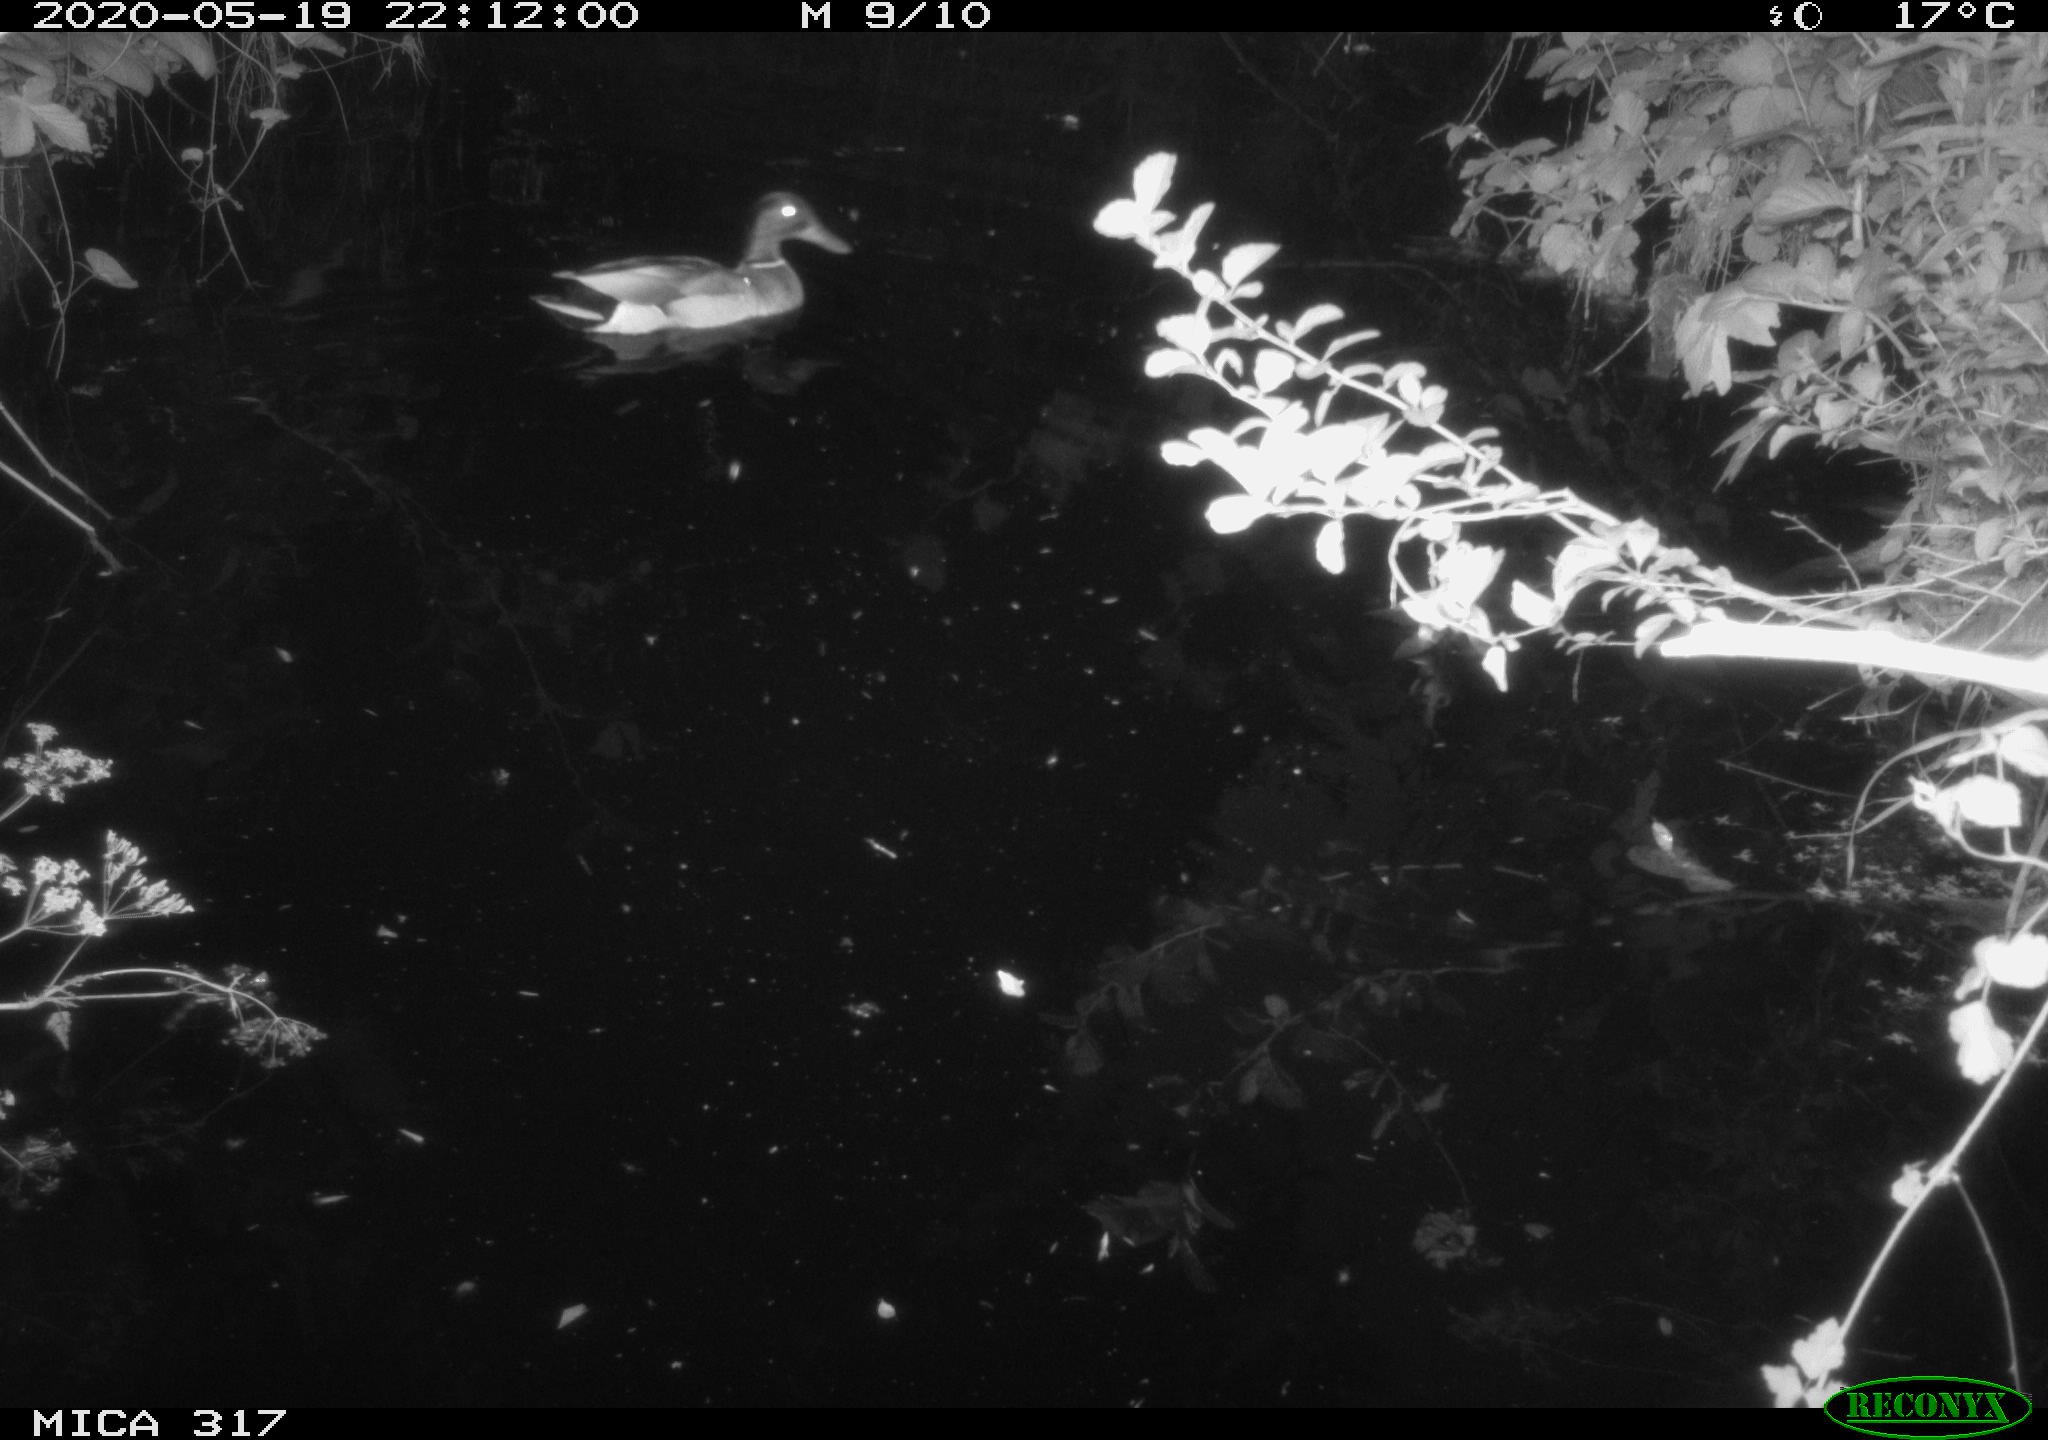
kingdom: Animalia
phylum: Chordata
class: Aves
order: Anseriformes
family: Anatidae
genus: Anas
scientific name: Anas platyrhynchos
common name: Mallard
